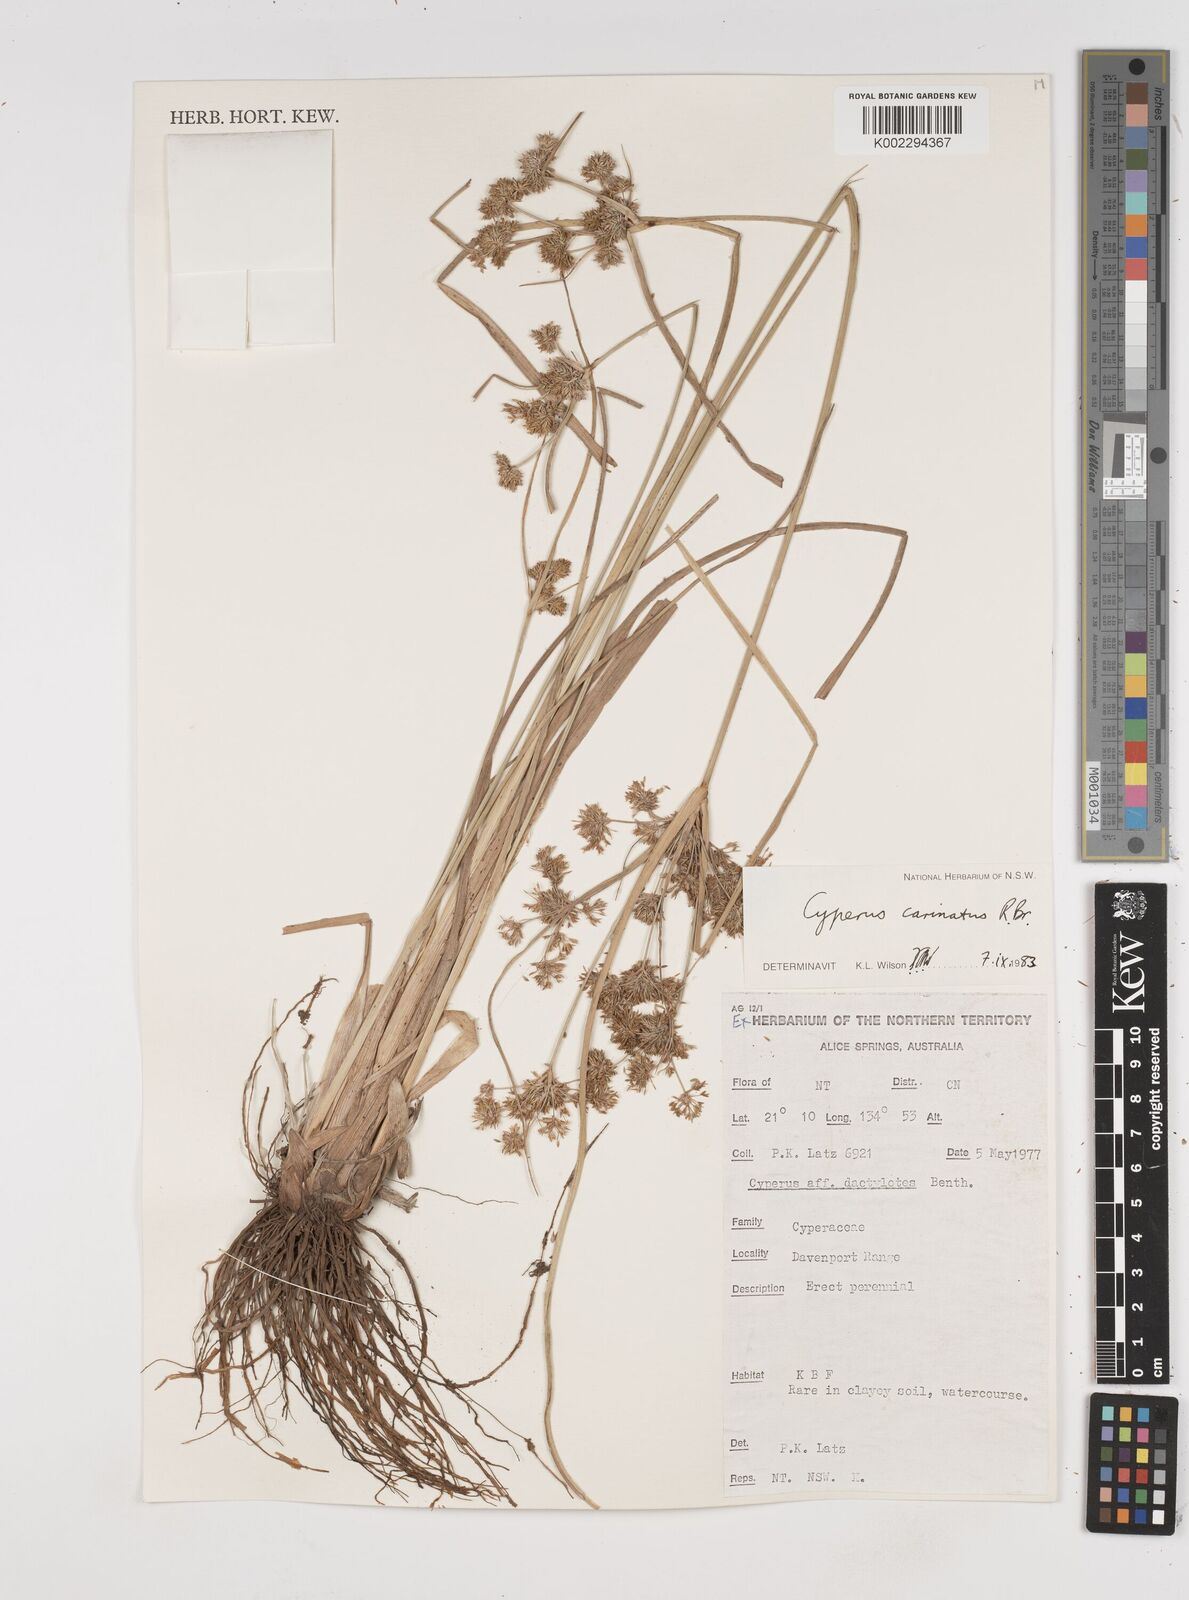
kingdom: Plantae
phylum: Tracheophyta
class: Liliopsida
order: Poales
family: Cyperaceae
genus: Cyperus
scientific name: Cyperus carinatus
